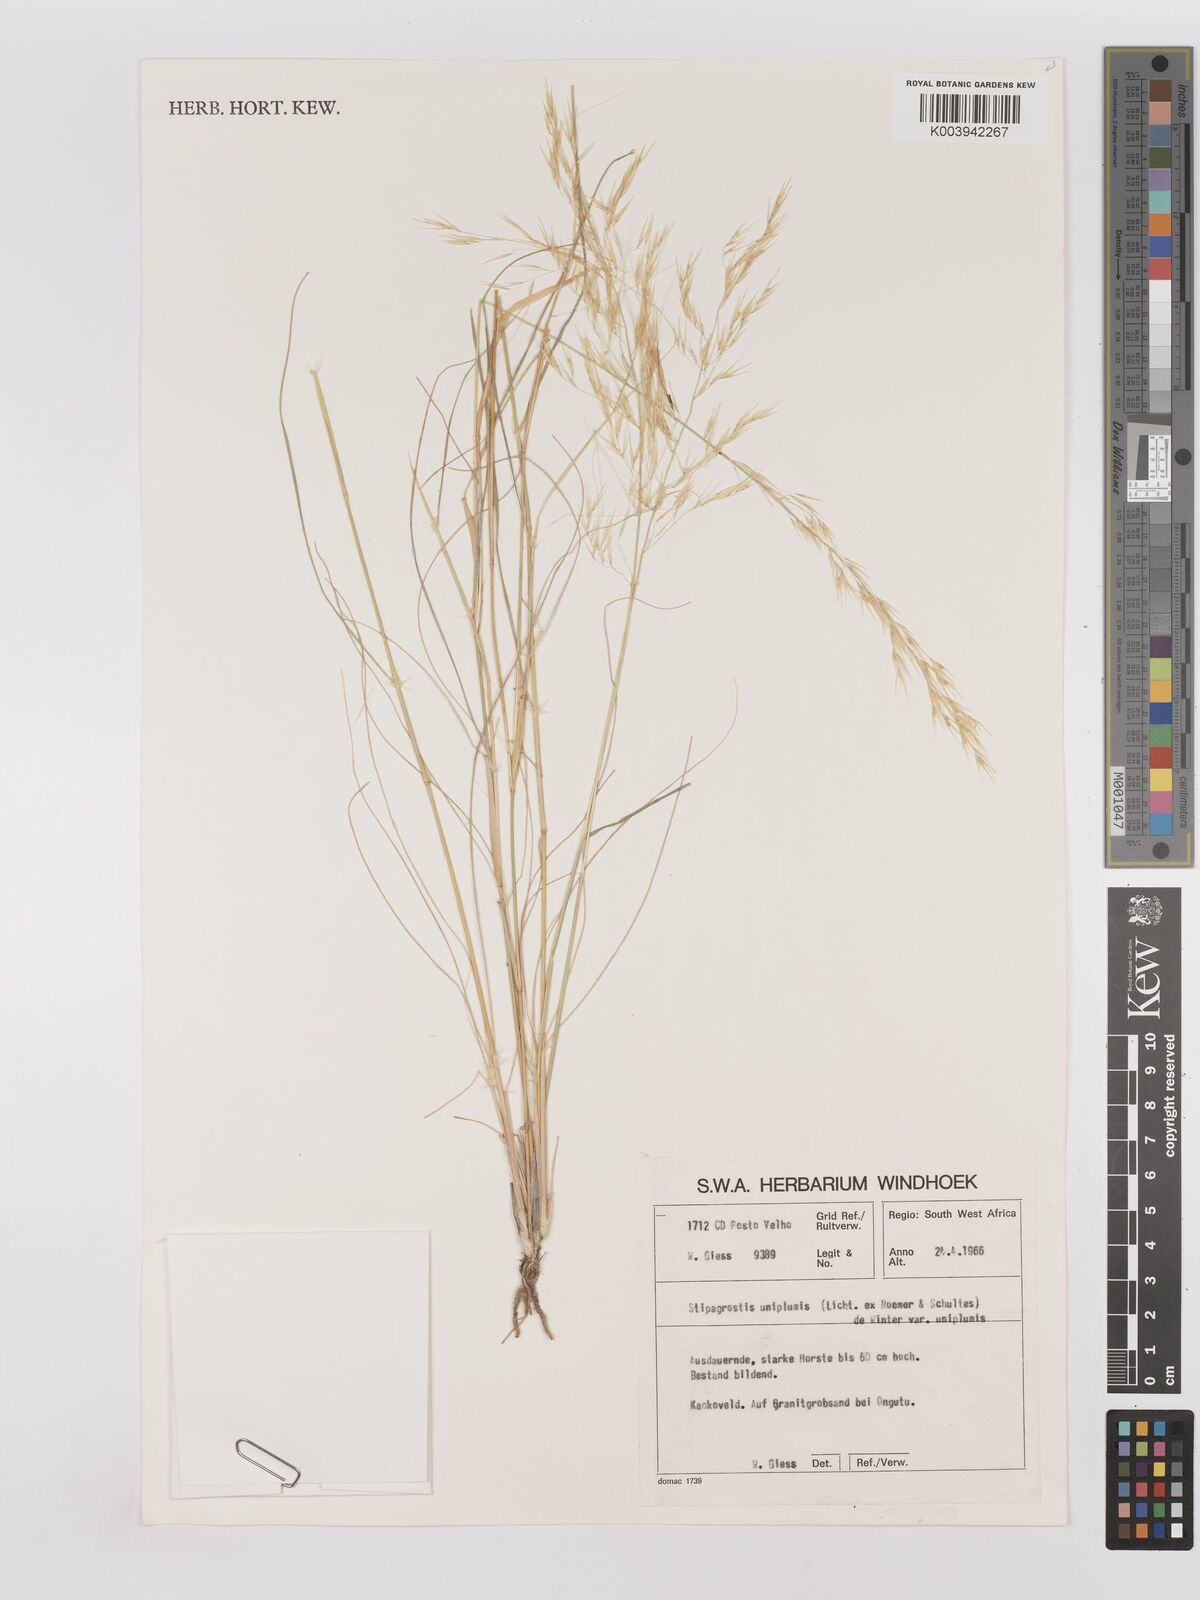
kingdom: Plantae
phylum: Tracheophyta
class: Liliopsida
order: Poales
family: Poaceae
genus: Stipagrostis
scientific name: Stipagrostis uniplumis
